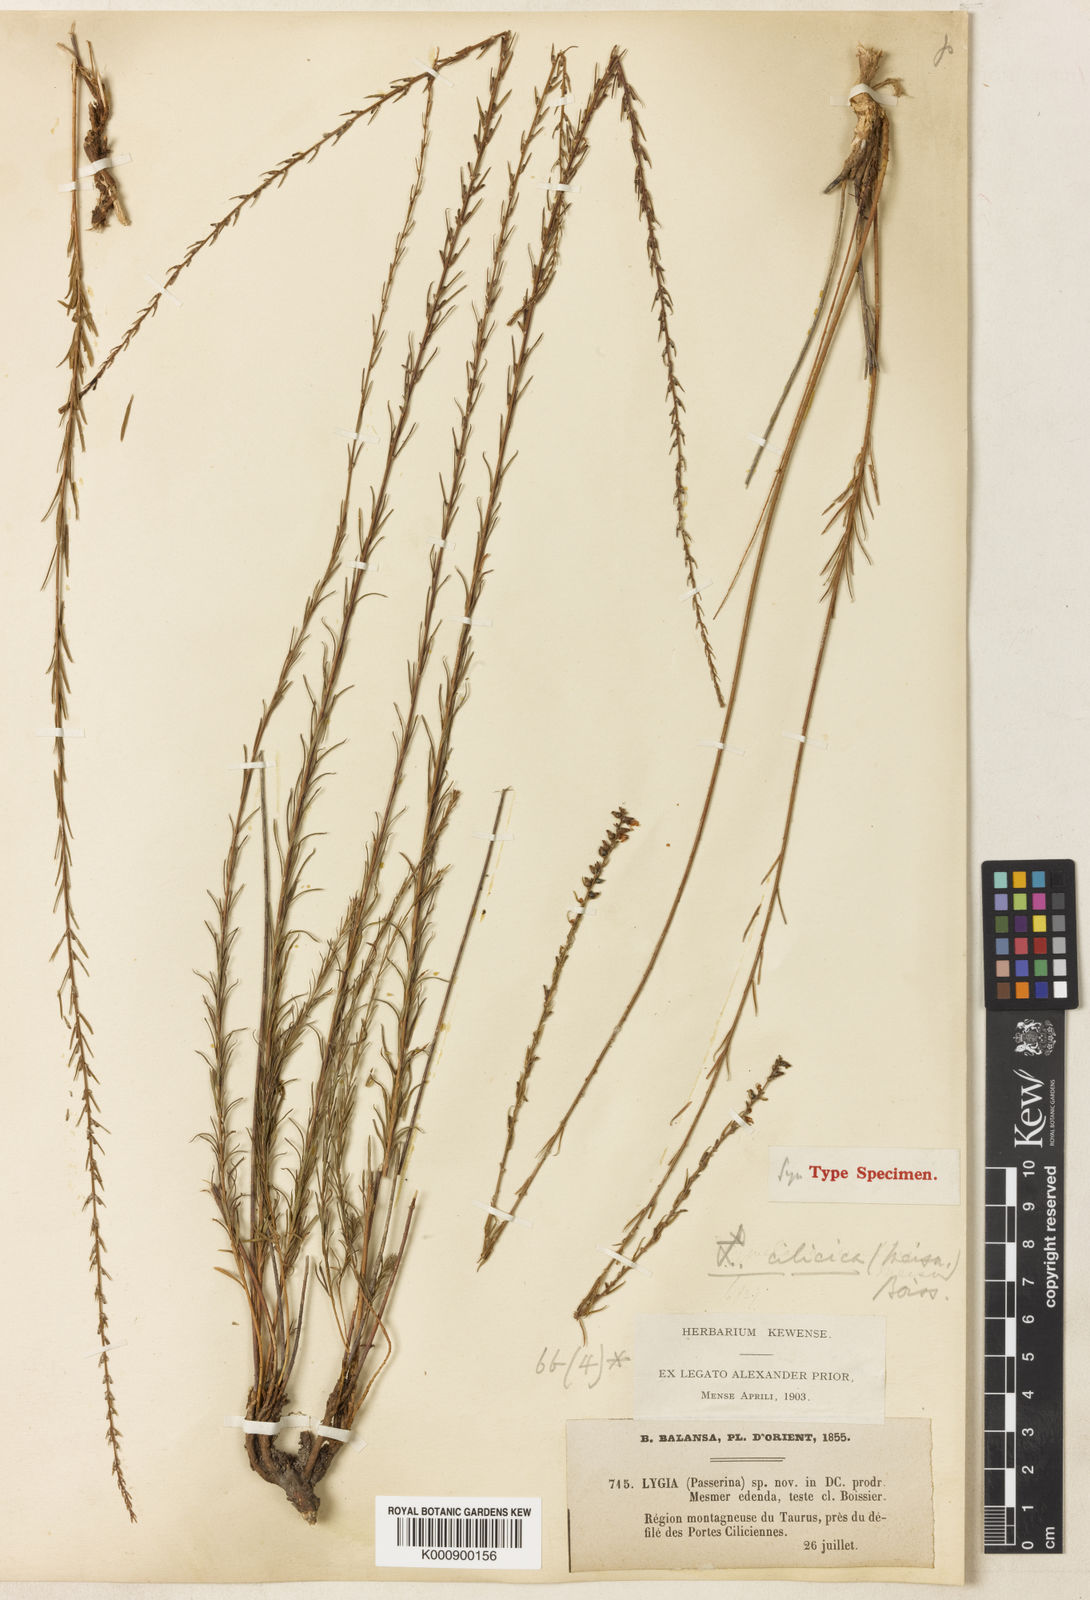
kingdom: Plantae
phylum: Tracheophyta
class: Magnoliopsida
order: Malvales
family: Thymelaeaceae
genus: Wikstroemia
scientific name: Wikstroemia
